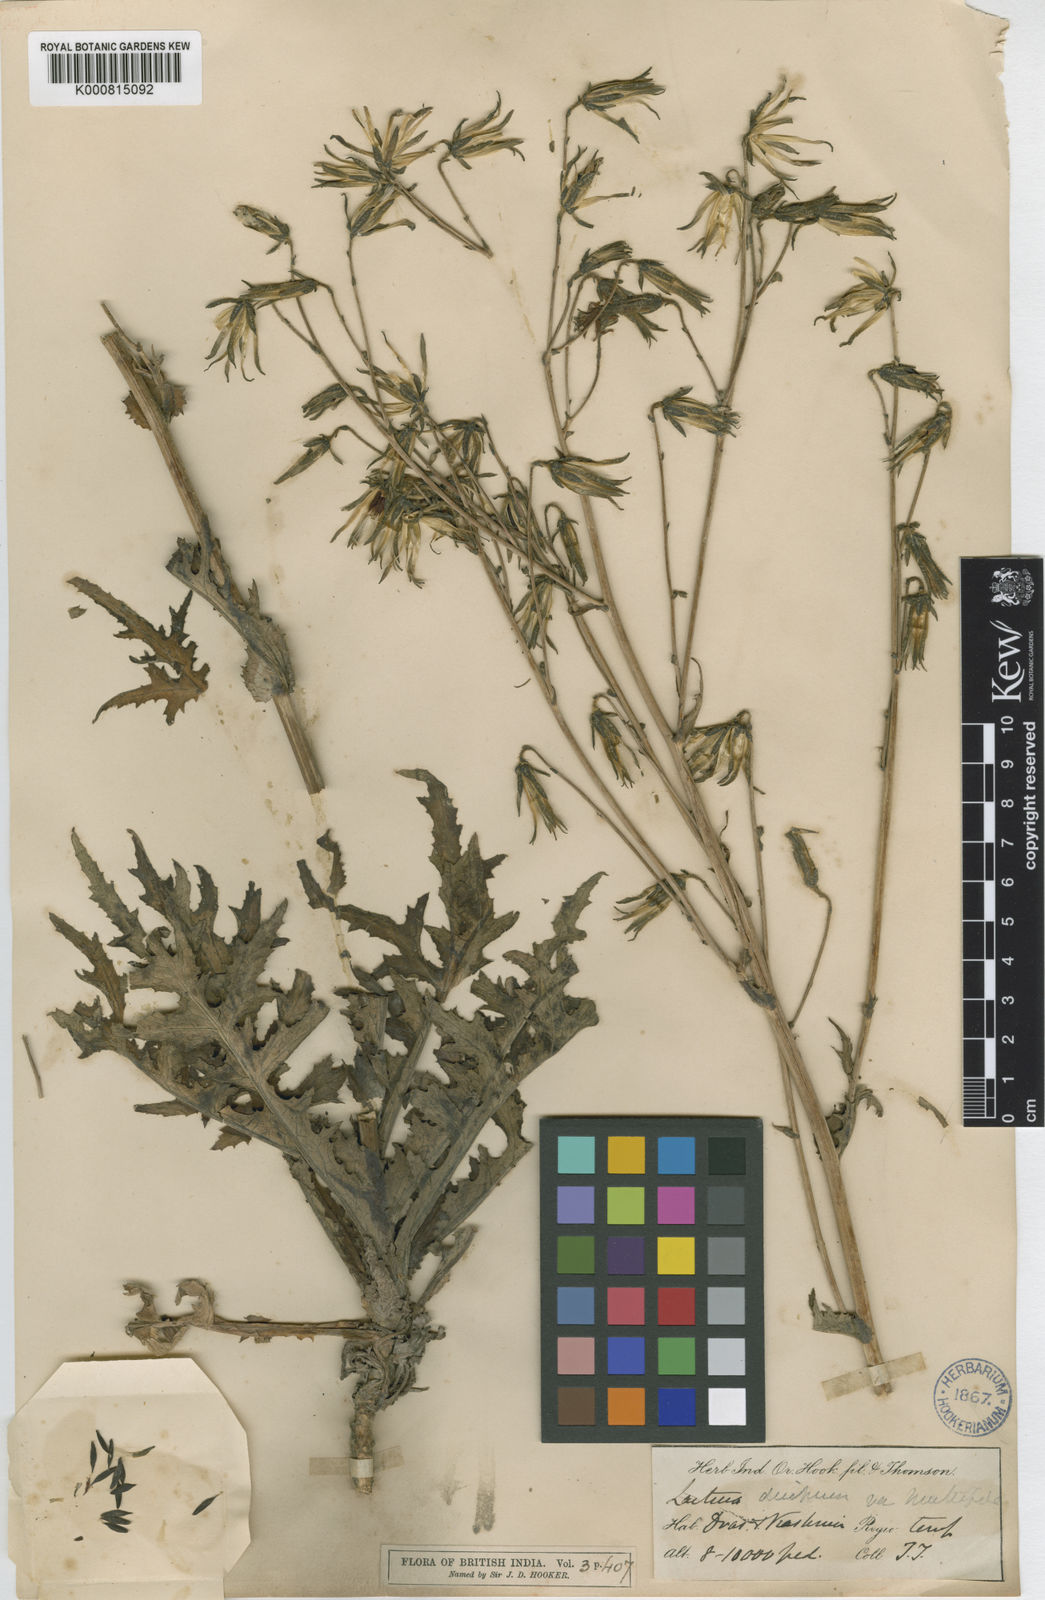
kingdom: Plantae
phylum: Tracheophyta
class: Magnoliopsida
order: Asterales
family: Asteraceae
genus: Melanoseris
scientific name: Melanoseris decipiens
